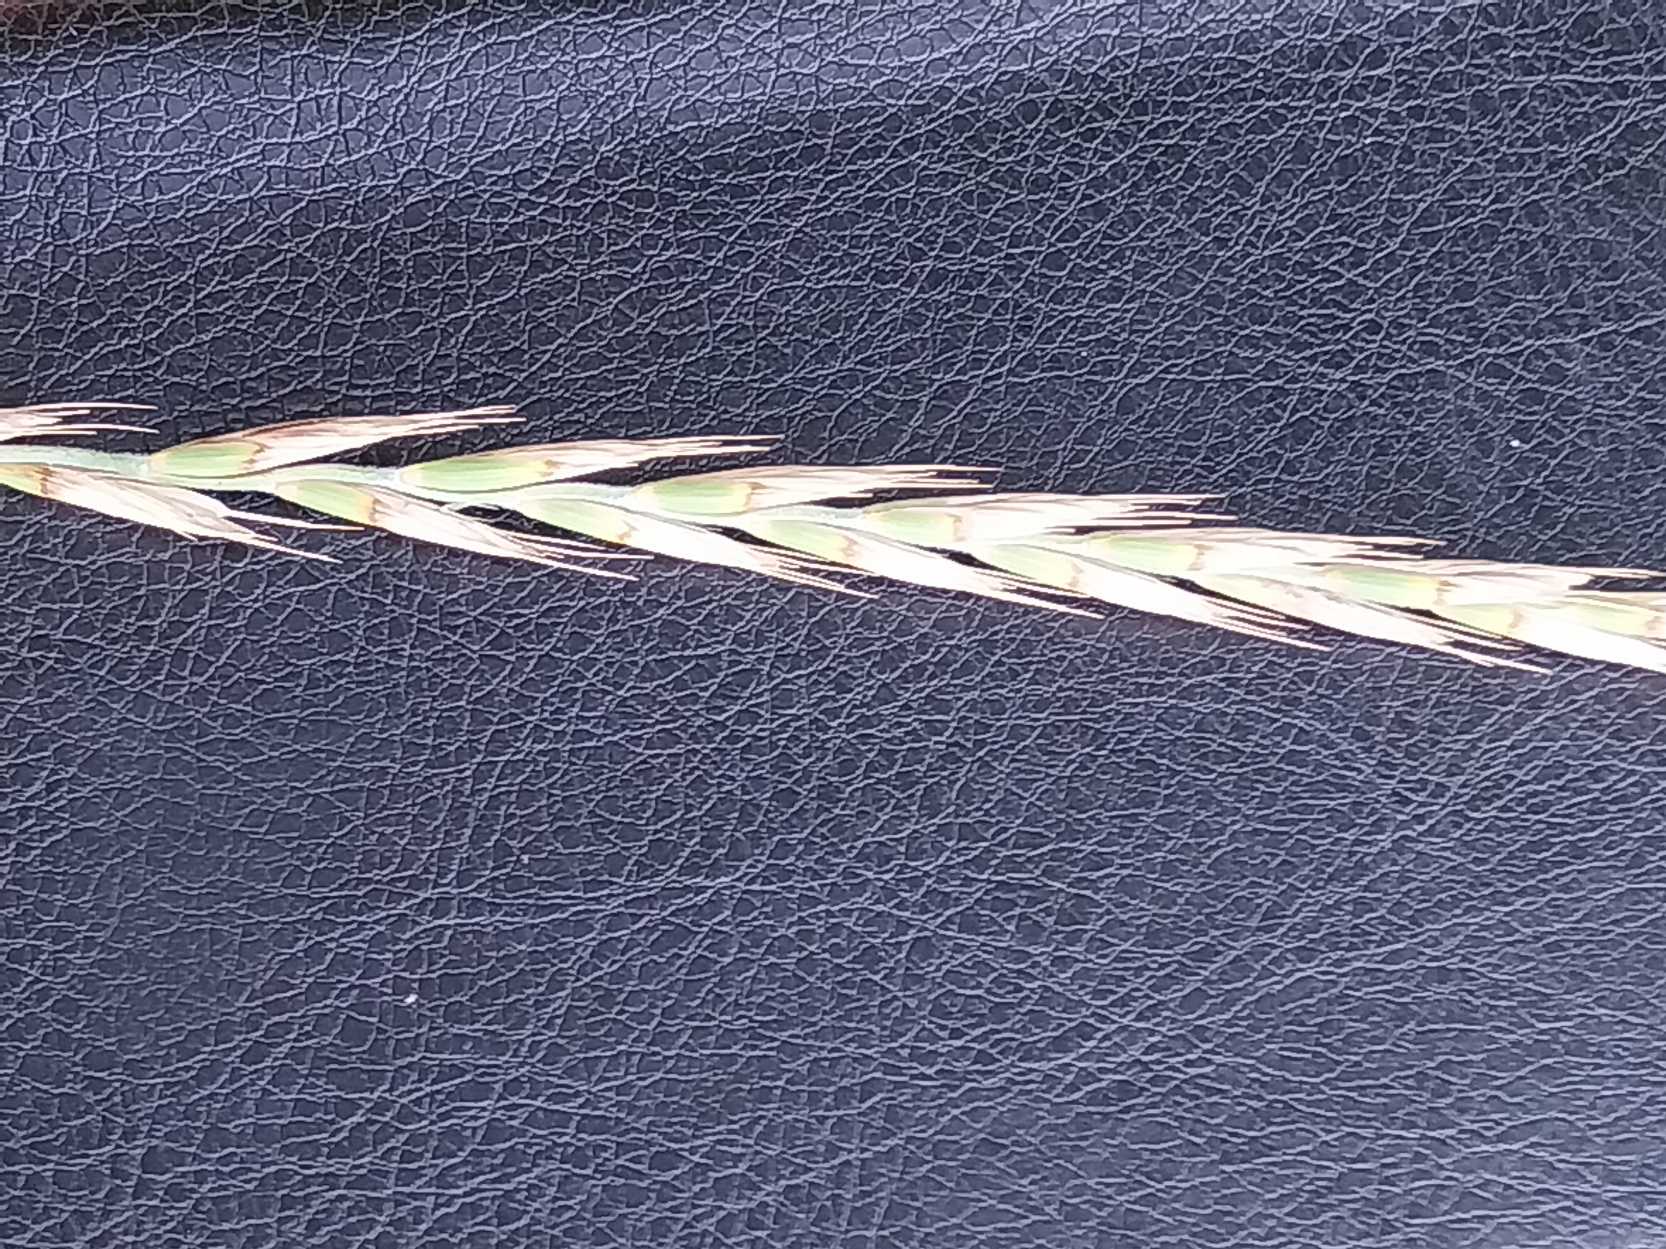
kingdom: Plantae
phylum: Tracheophyta
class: Liliopsida
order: Poales
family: Poaceae
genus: Elymus
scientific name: Elymus repens
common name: Almindelig kvik
